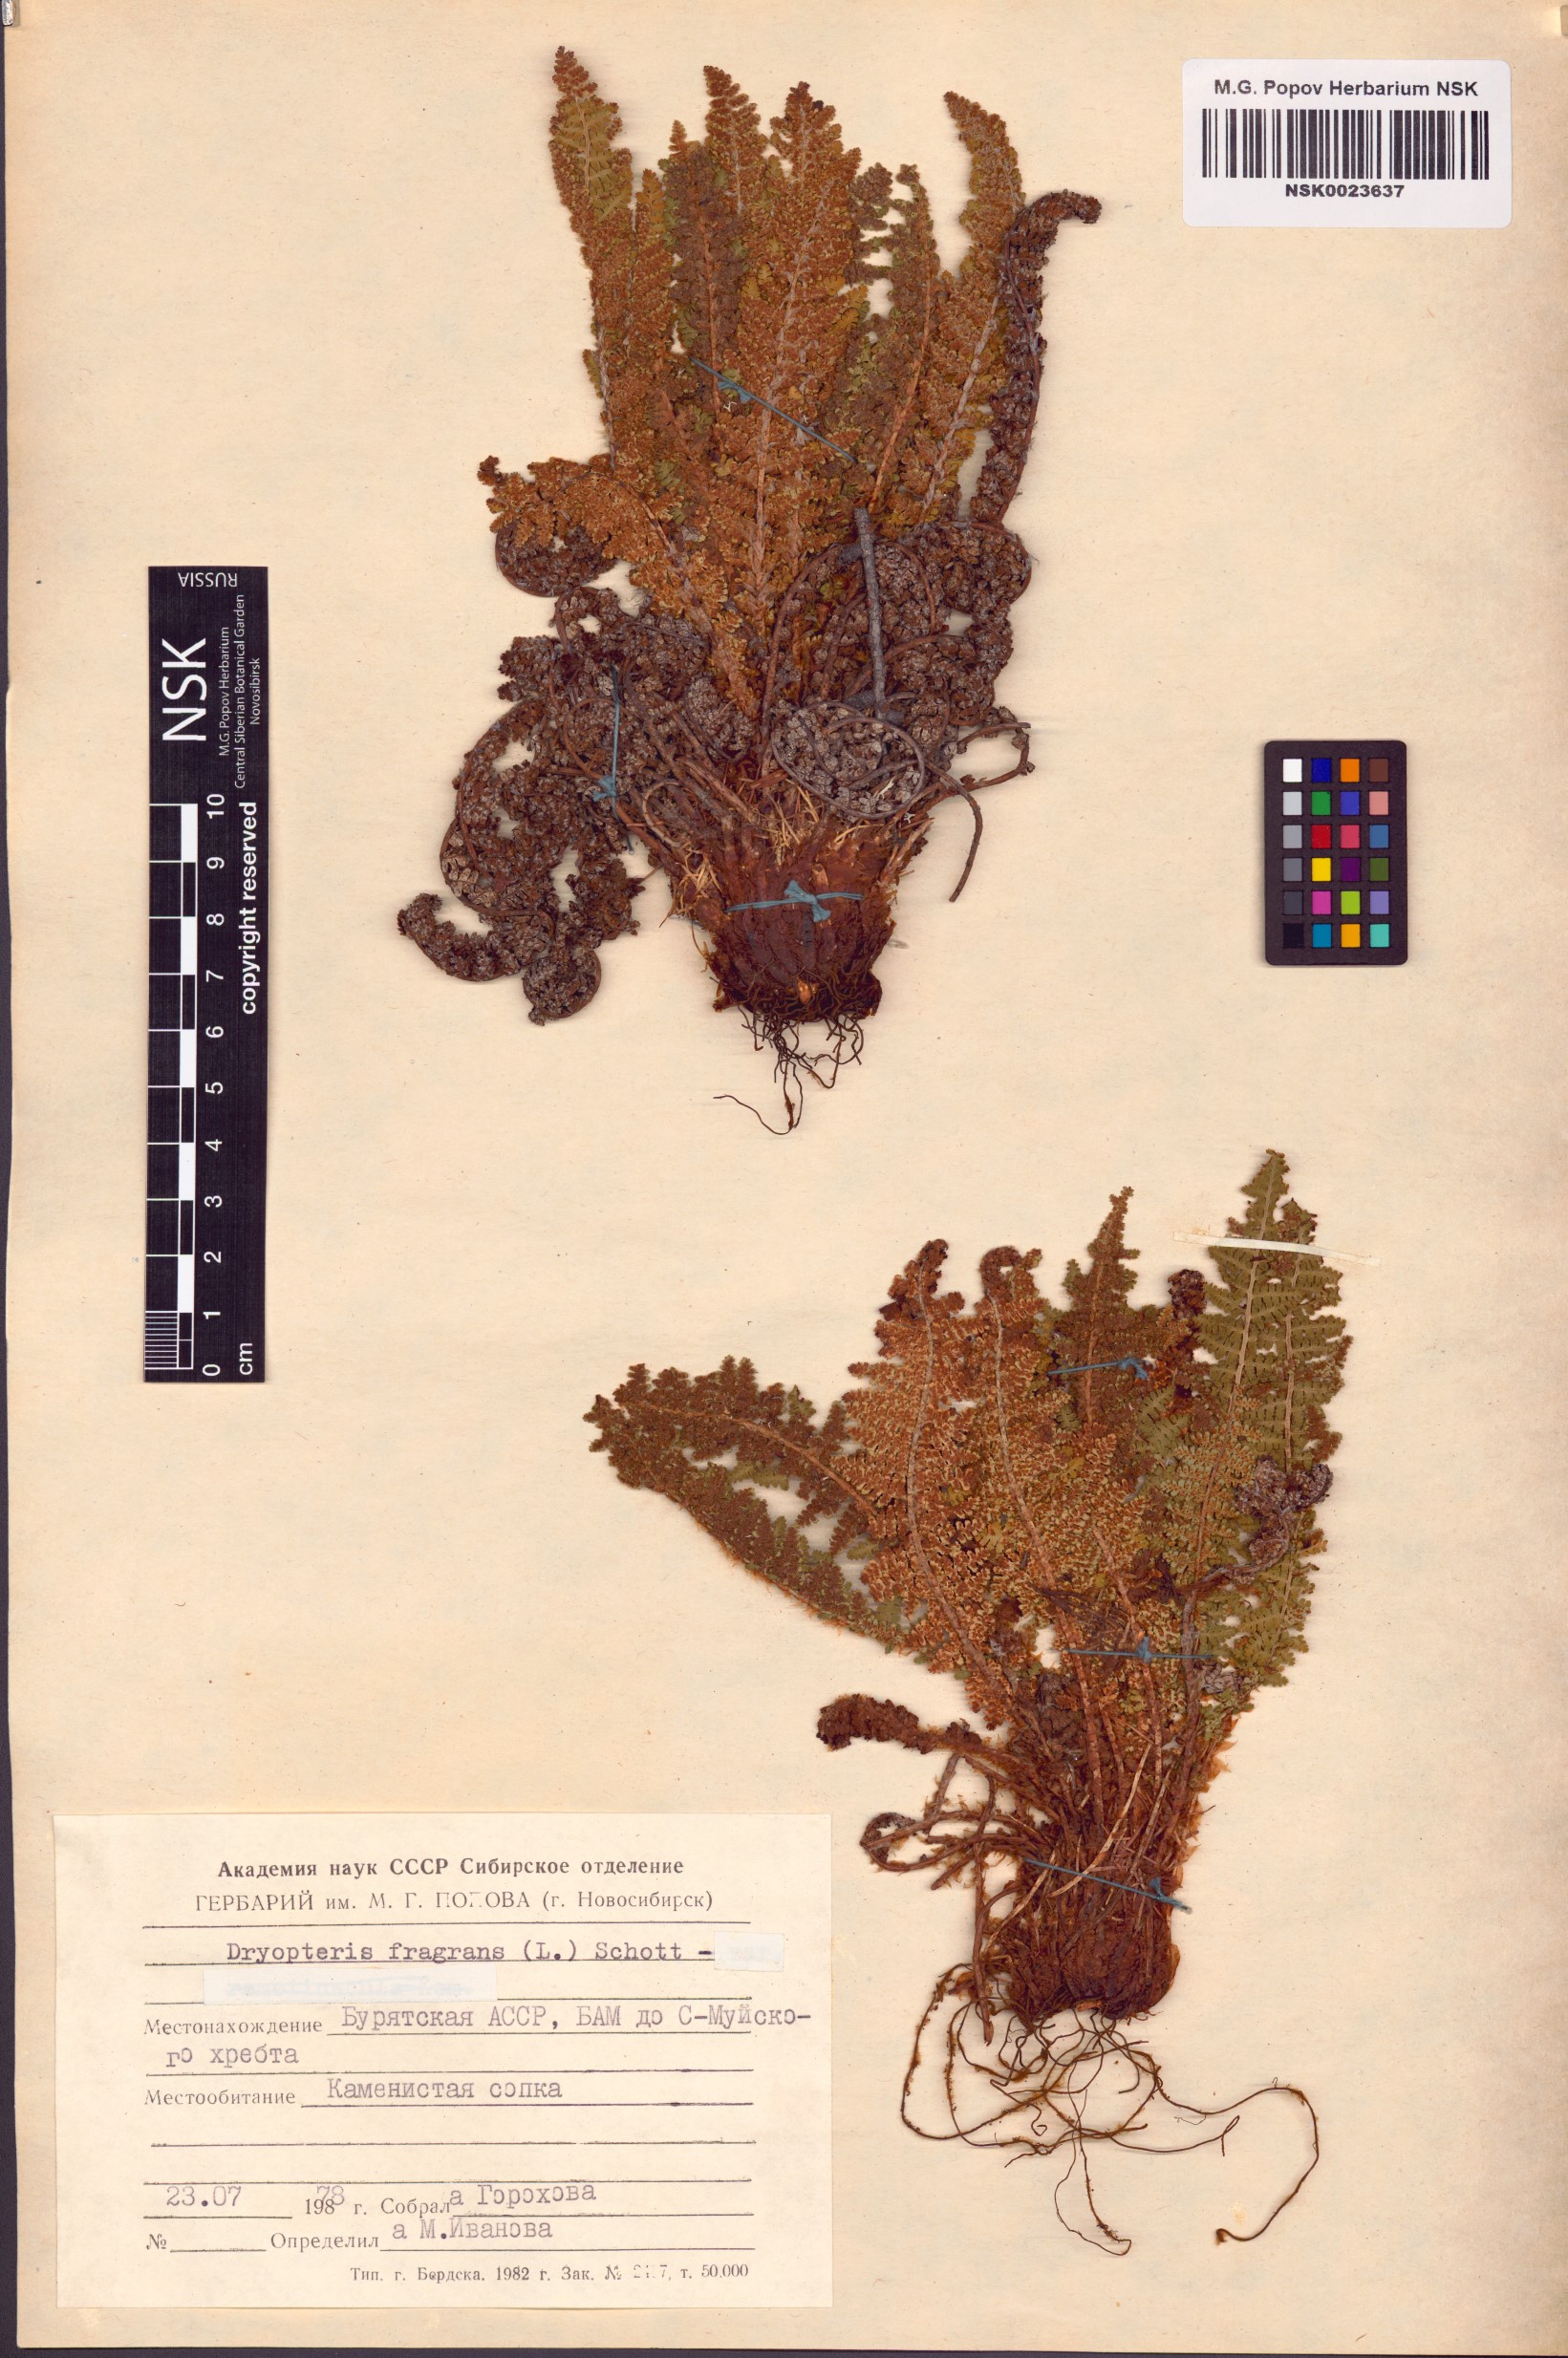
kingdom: Plantae
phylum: Tracheophyta
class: Polypodiopsida
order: Polypodiales
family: Dryopteridaceae
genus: Dryopteris
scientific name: Dryopteris fragrans
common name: Fragrant wood fern
